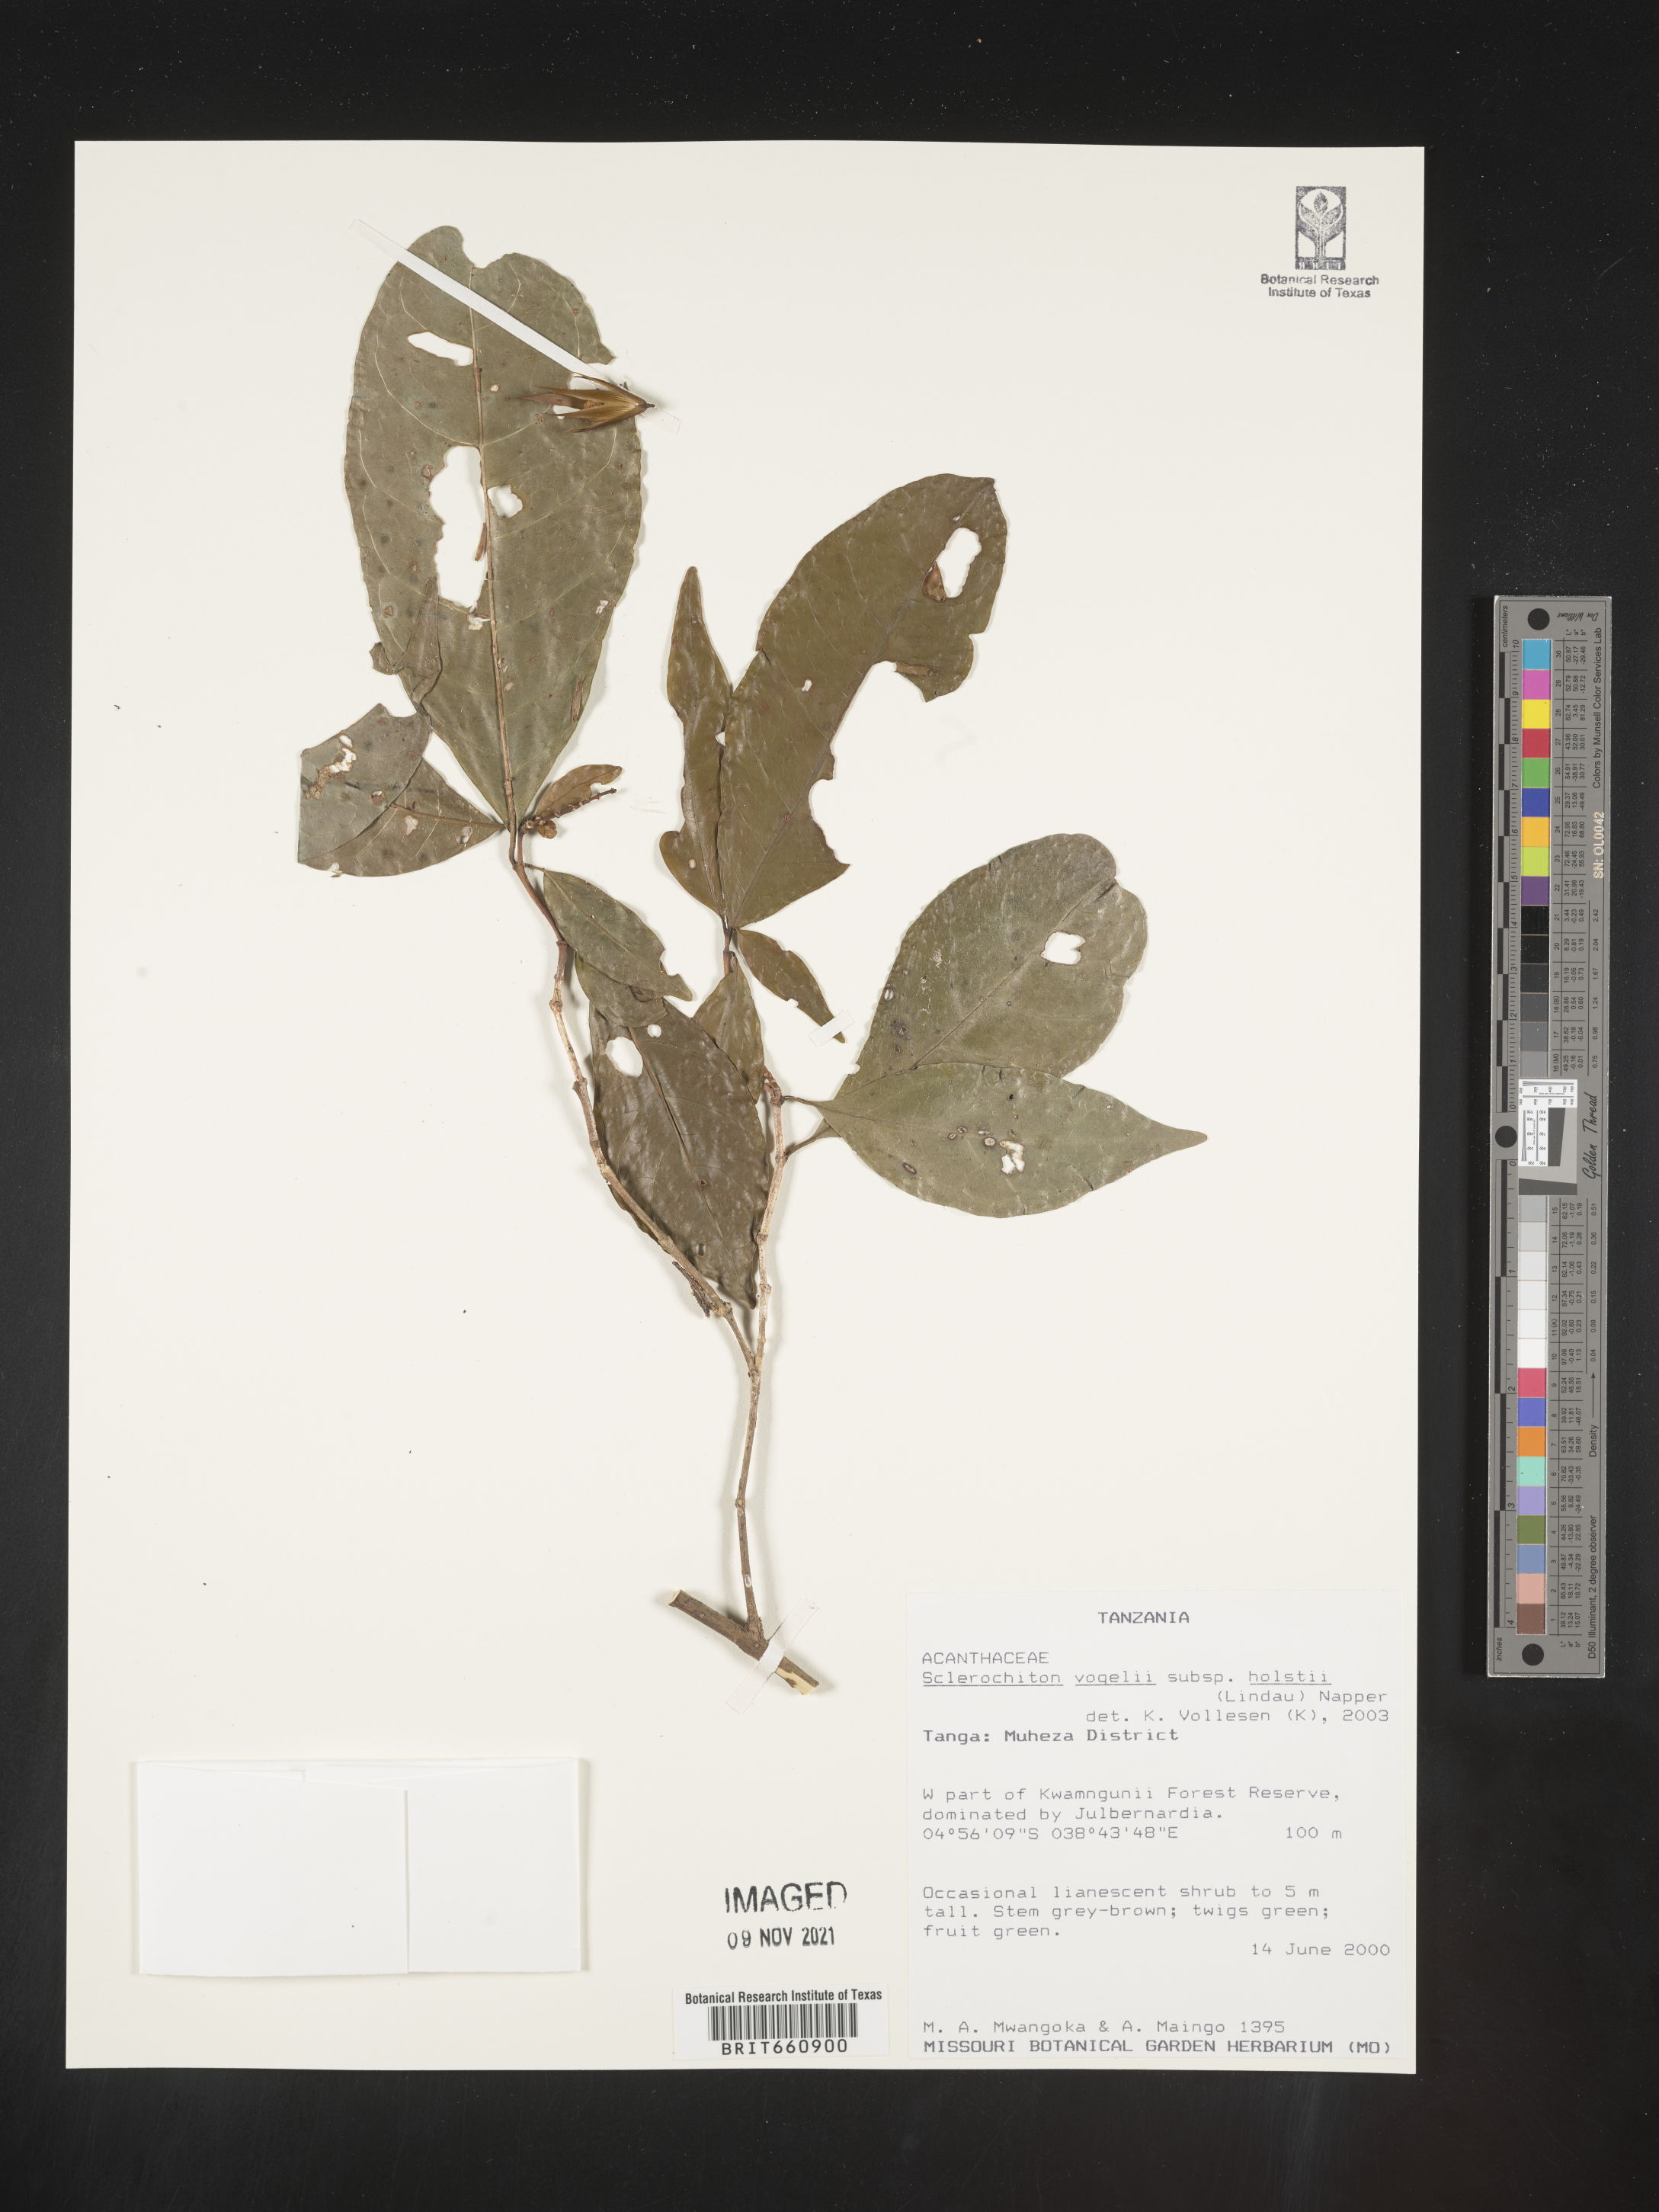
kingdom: Plantae
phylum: Tracheophyta
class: Magnoliopsida
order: Lamiales
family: Acanthaceae
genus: Sclerochiton
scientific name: Sclerochiton
